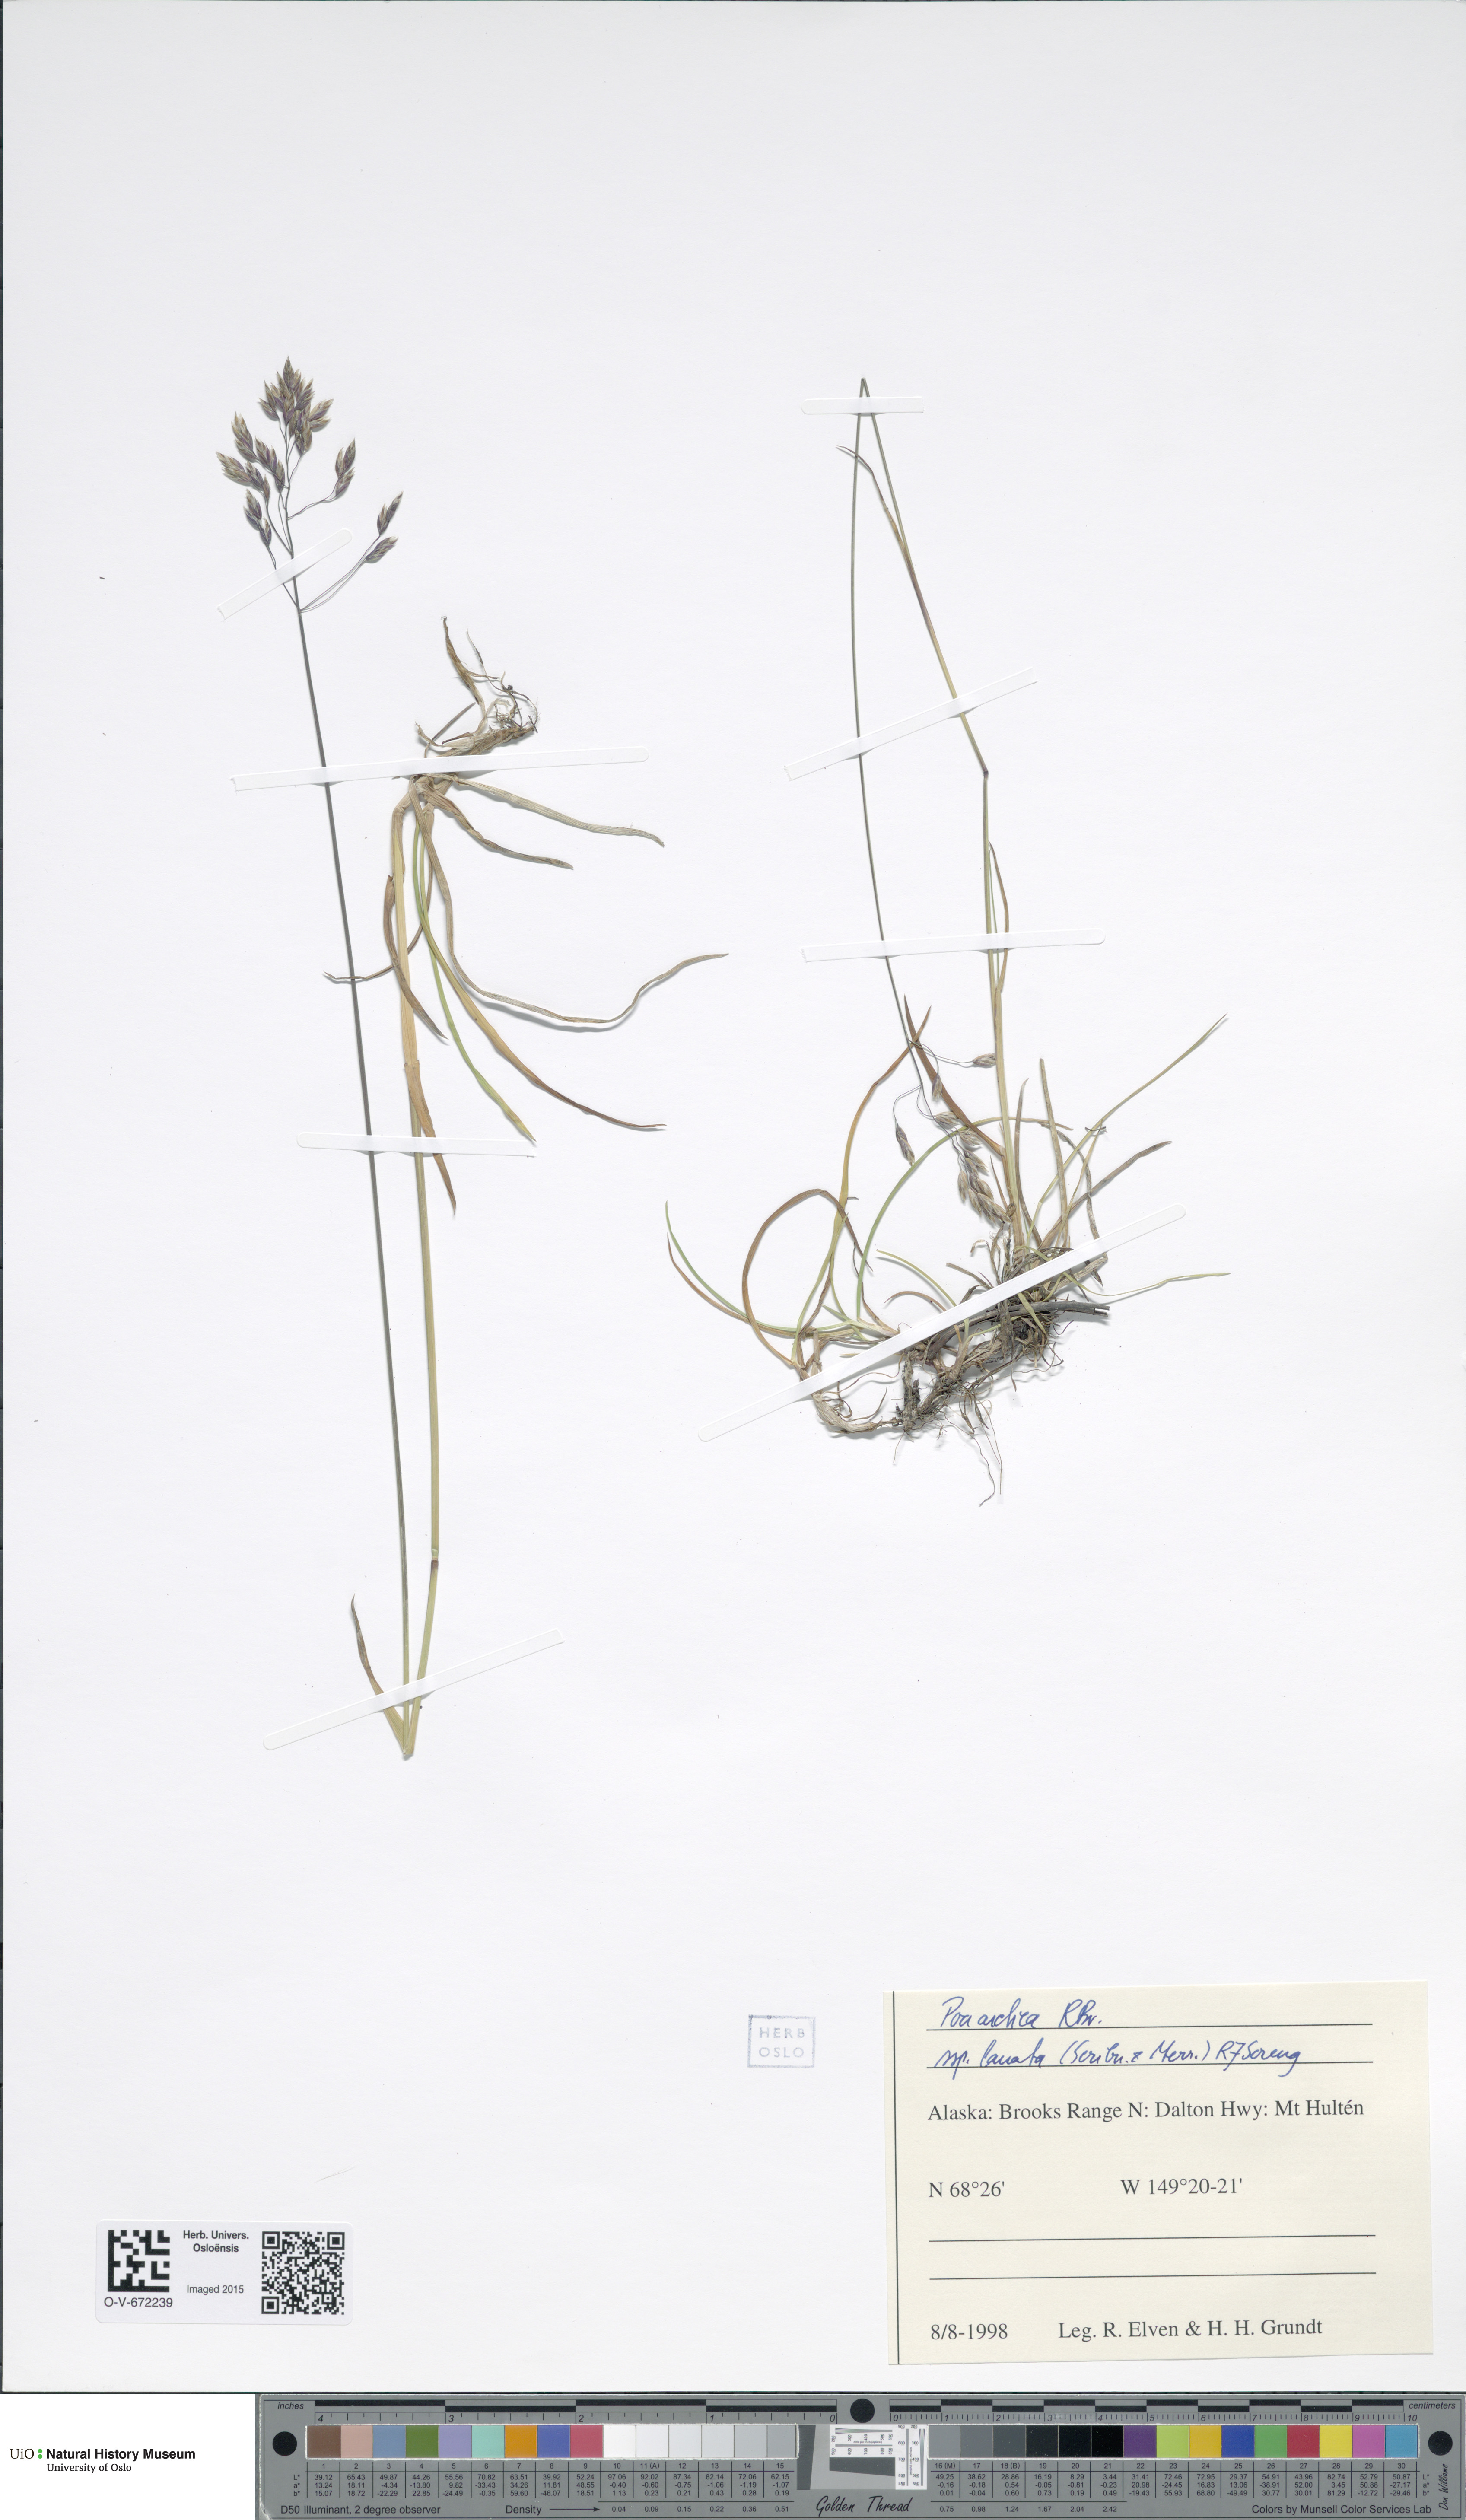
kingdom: Plantae
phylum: Tracheophyta
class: Liliopsida
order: Poales
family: Poaceae
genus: Poa
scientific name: Poa arctica
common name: Arctic bluegrass
